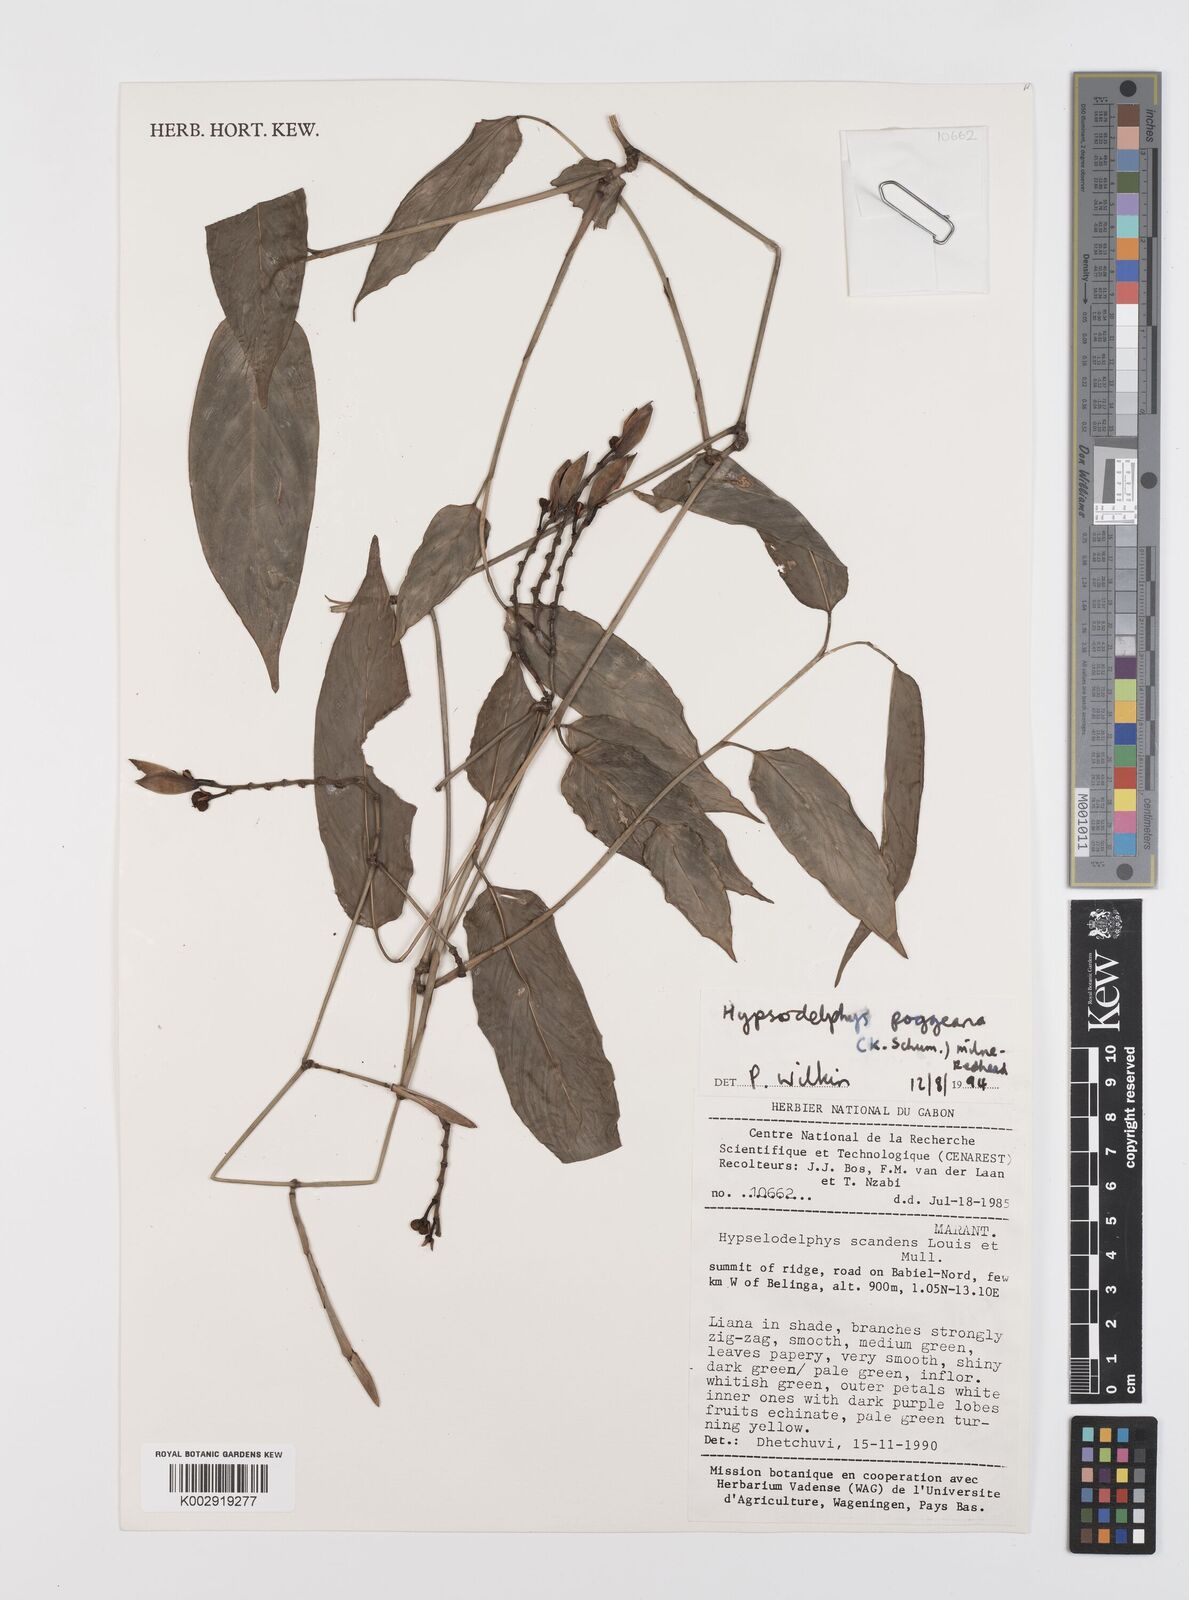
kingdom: Plantae
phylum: Tracheophyta
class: Liliopsida
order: Zingiberales
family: Marantaceae
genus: Hypselodelphys
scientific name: Hypselodelphys poggeana
